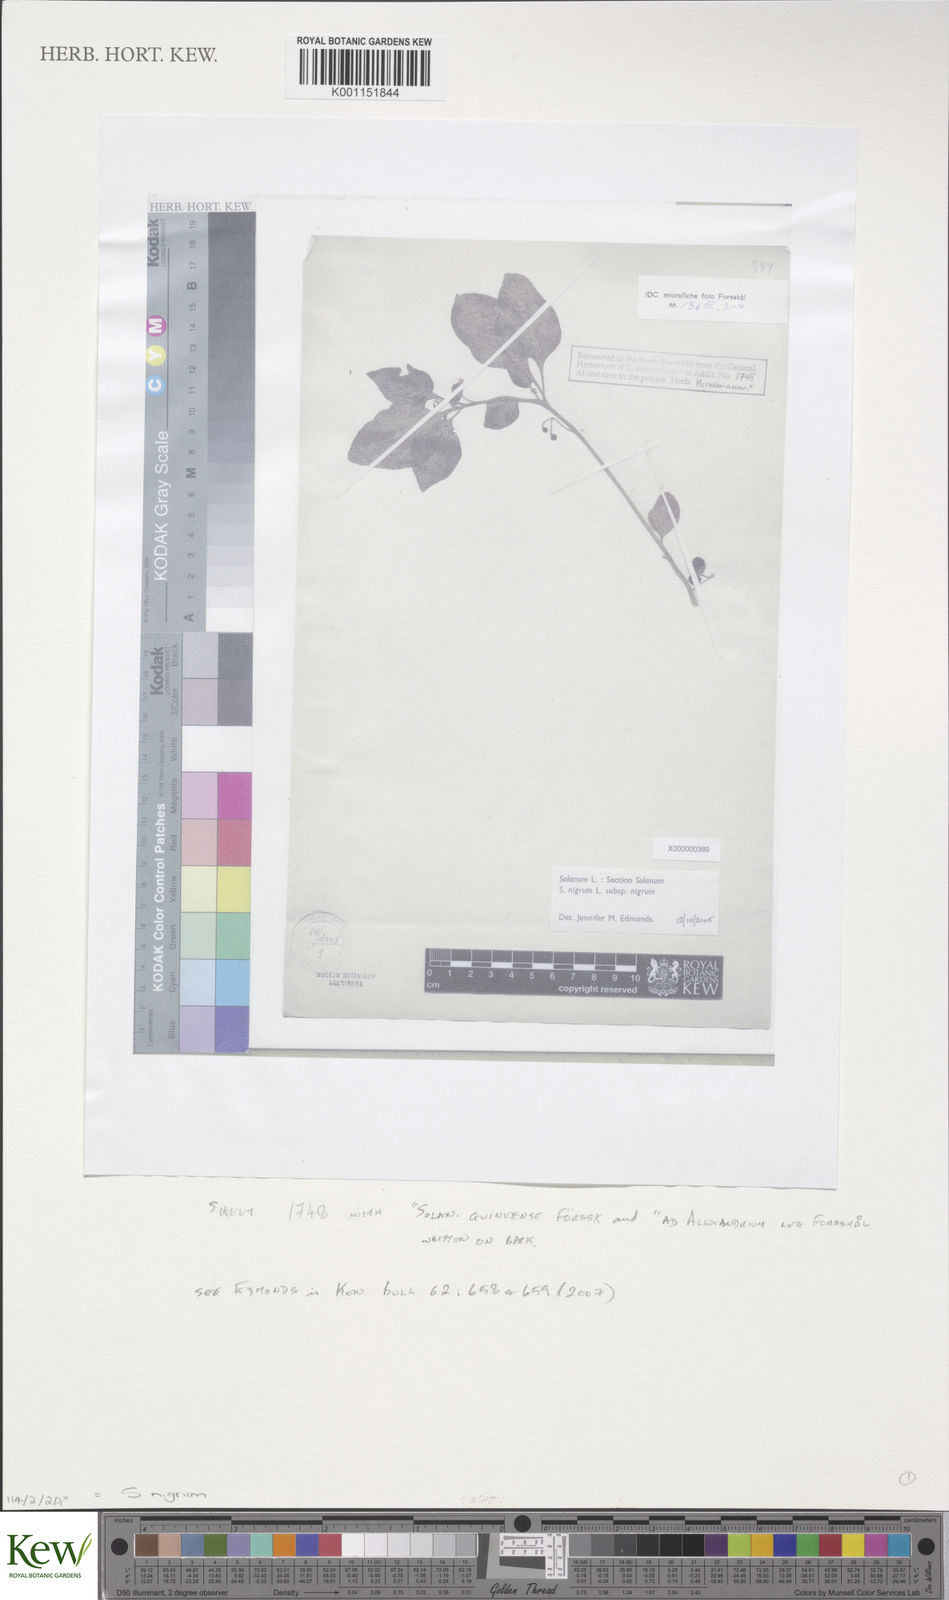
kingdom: Plantae
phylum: Tracheophyta
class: Magnoliopsida
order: Solanales
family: Solanaceae
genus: Solanum
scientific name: Solanum nigrum
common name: Black nightshade
